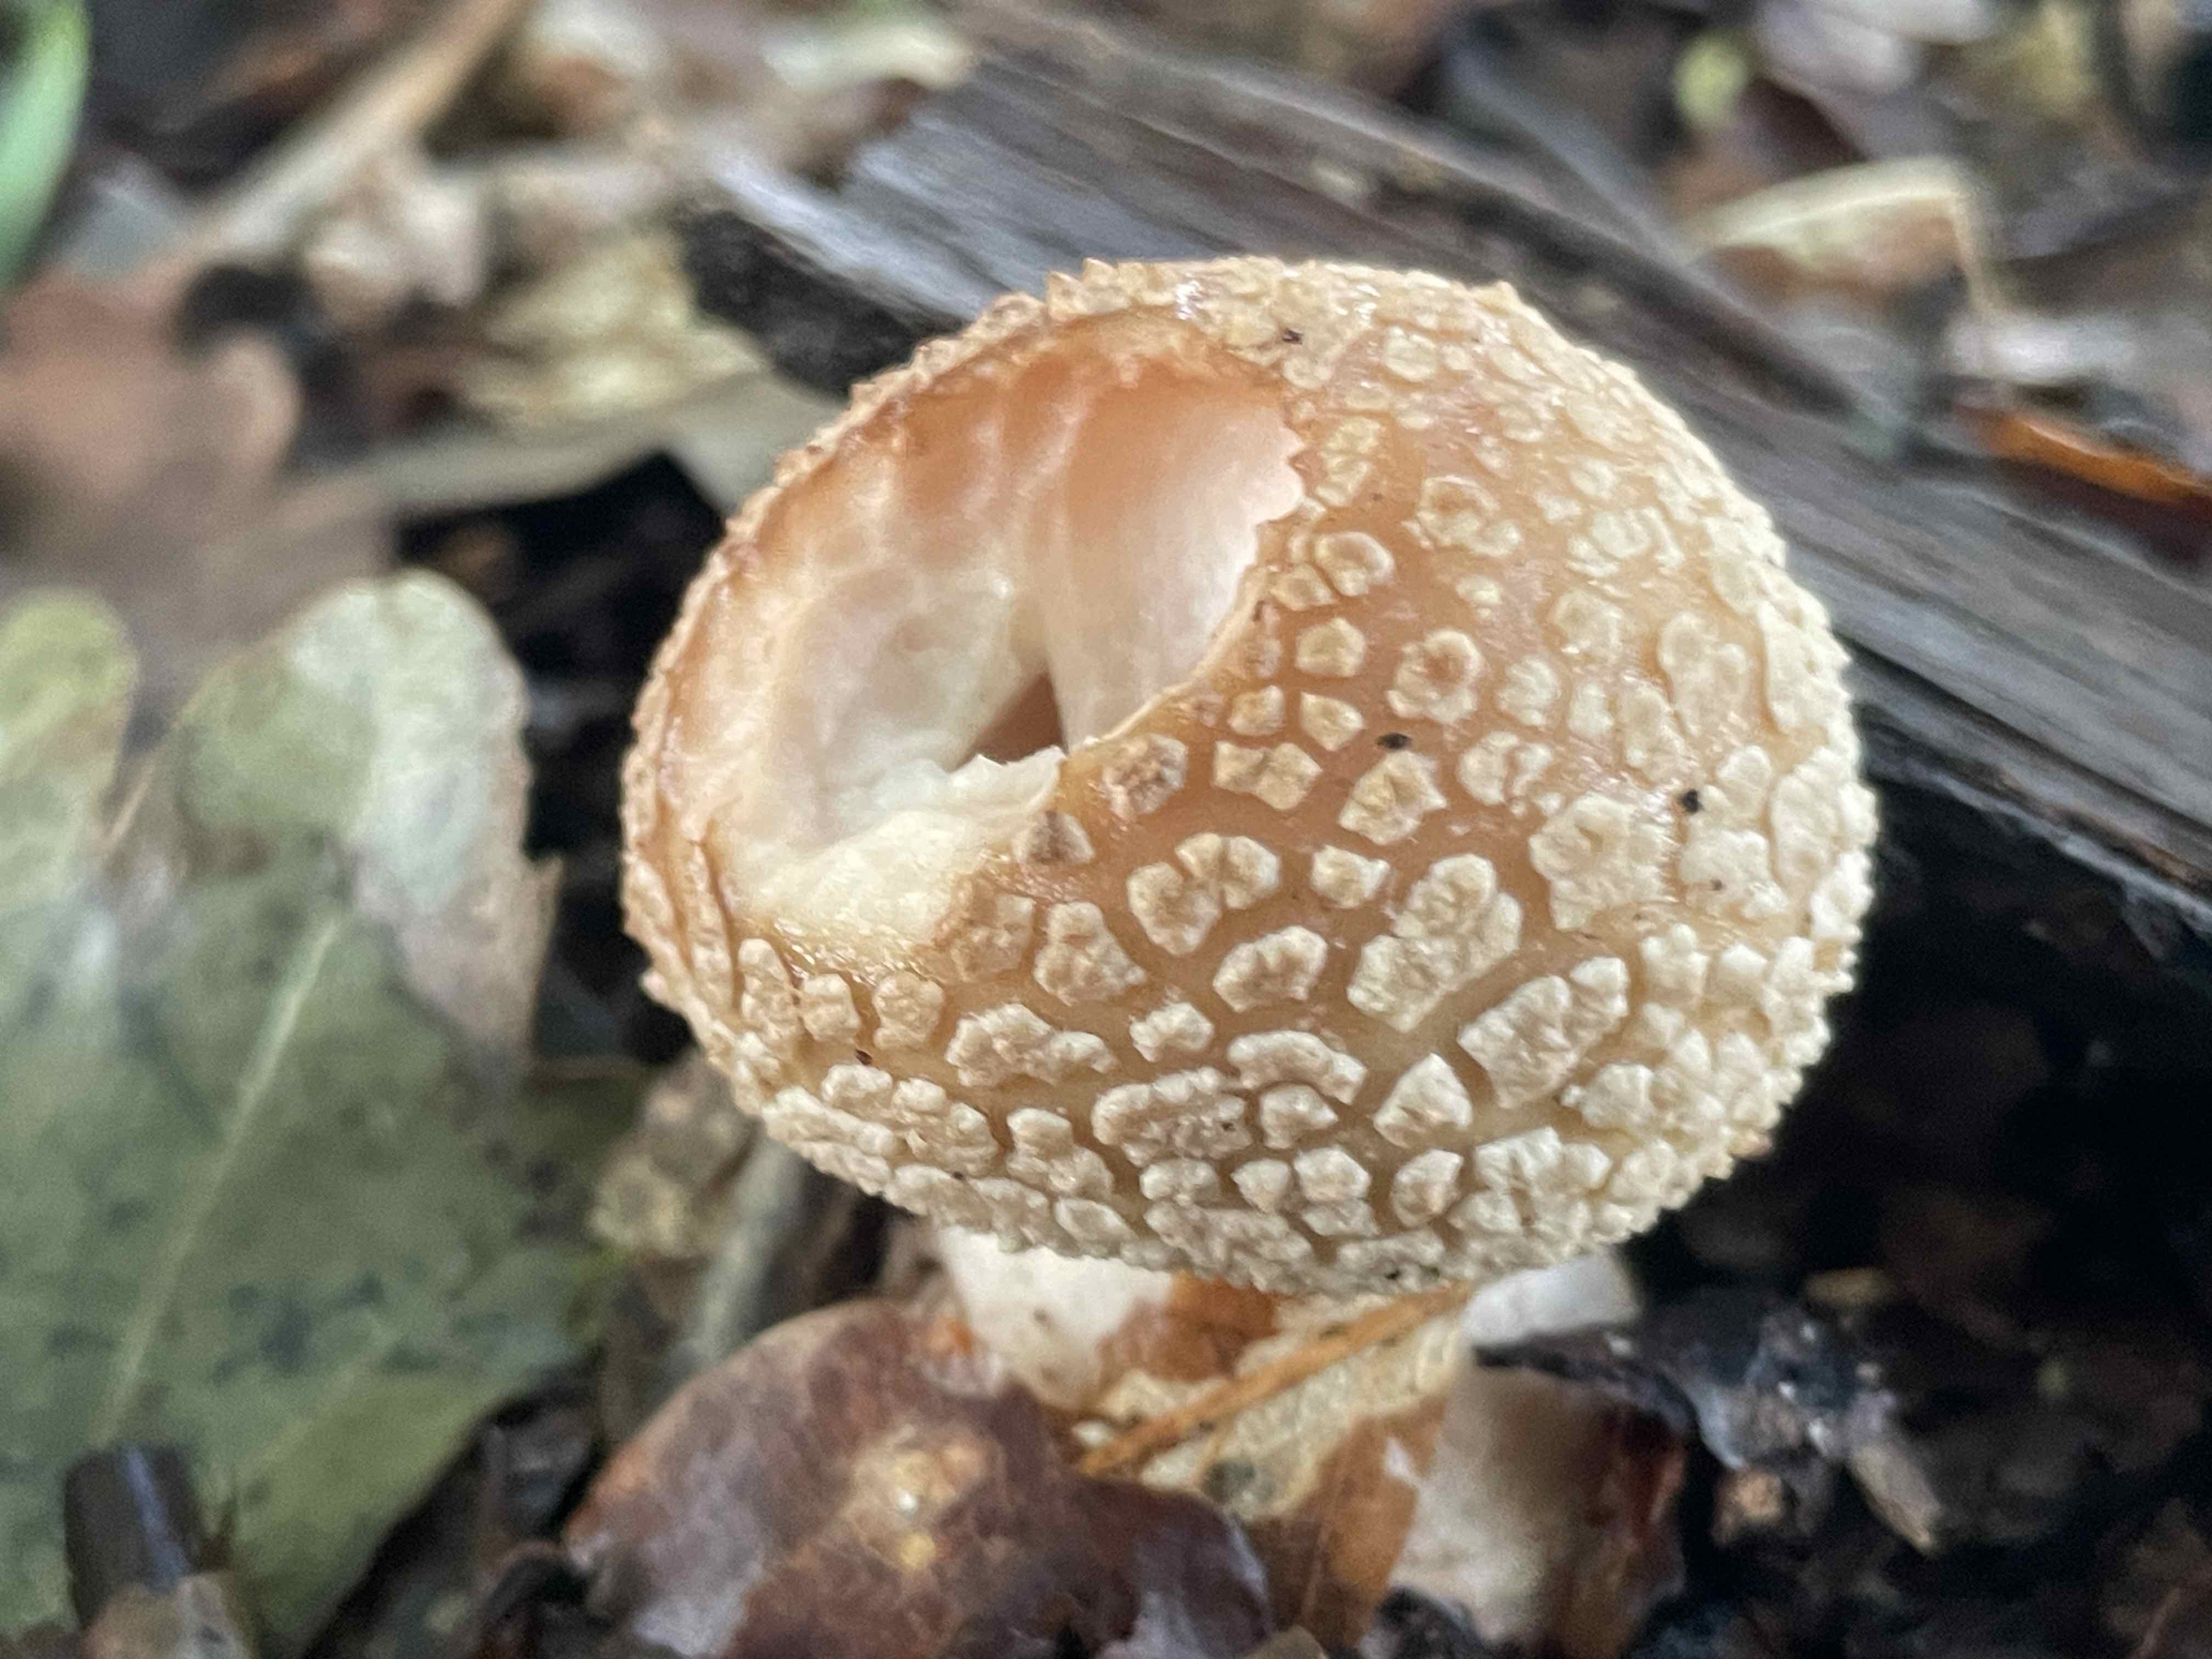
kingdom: Fungi
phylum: Basidiomycota
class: Agaricomycetes
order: Agaricales
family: Amanitaceae
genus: Amanita
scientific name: Amanita rubescens
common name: rødmende fluesvamp
